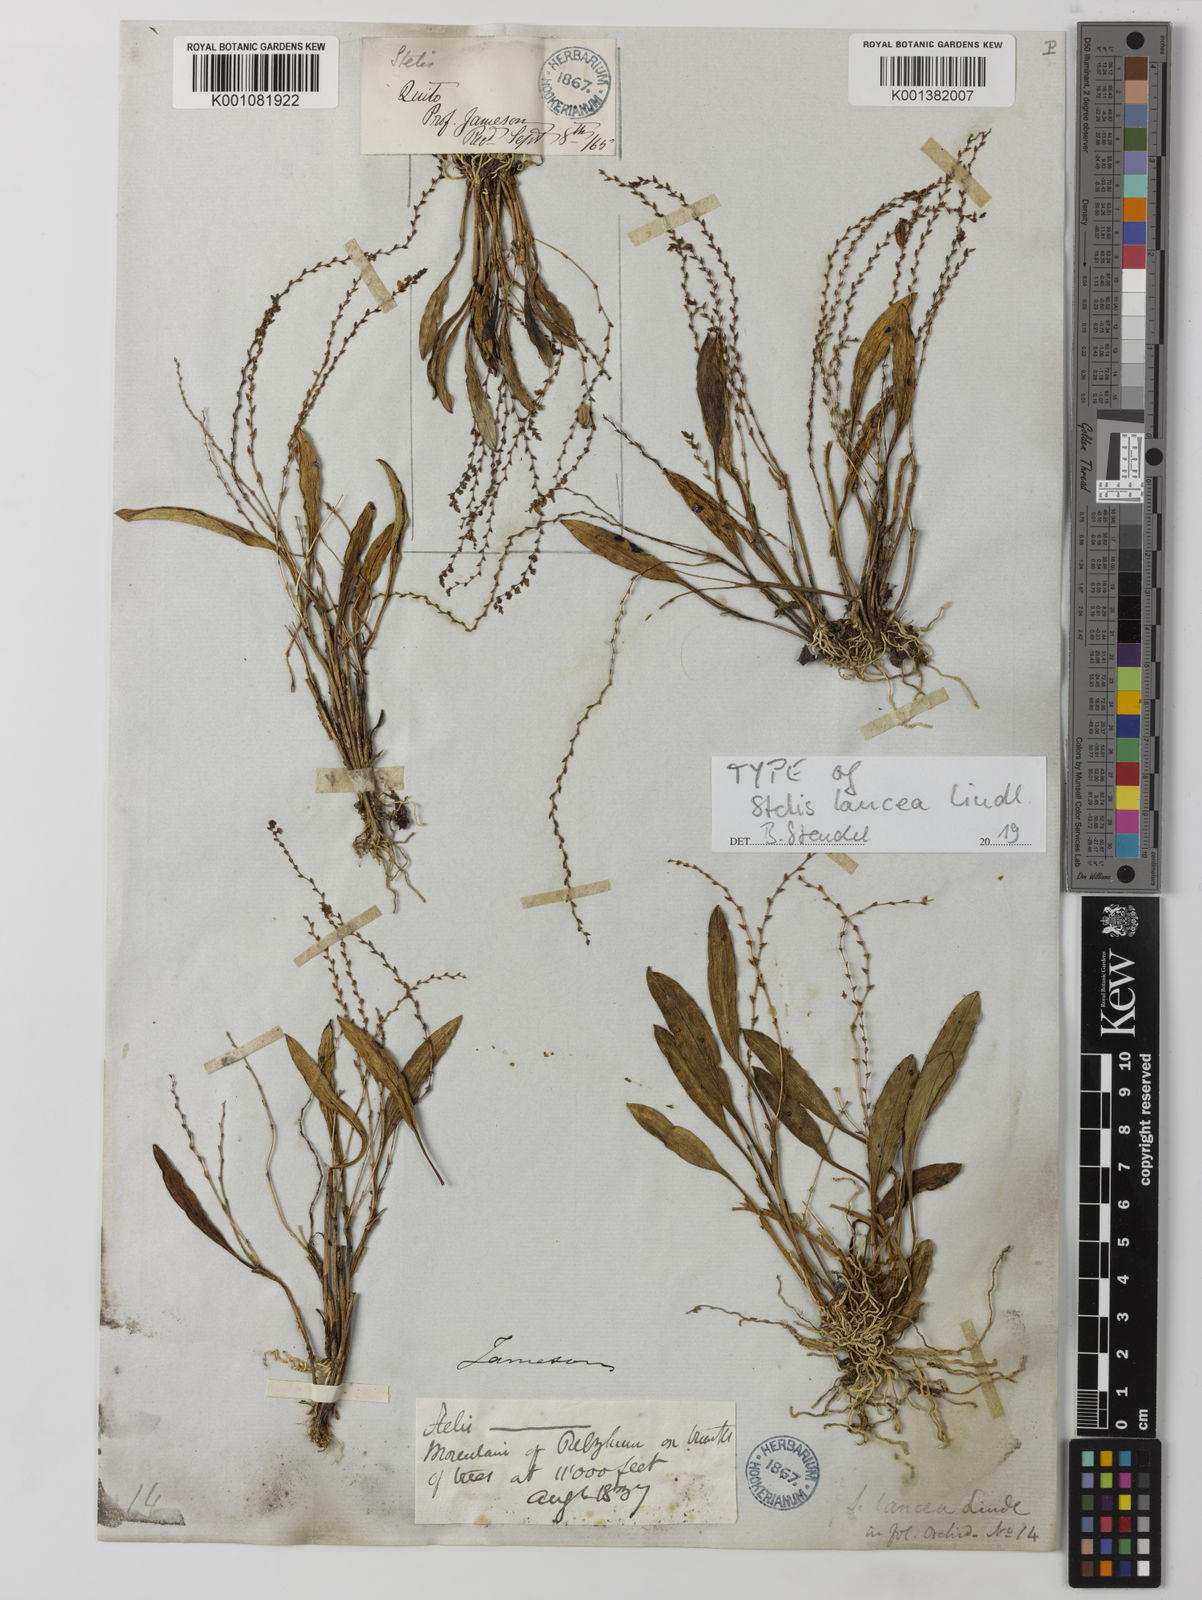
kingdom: Plantae
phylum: Tracheophyta
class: Liliopsida
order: Asparagales
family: Orchidaceae
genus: Stelis
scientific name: Stelis lancea
